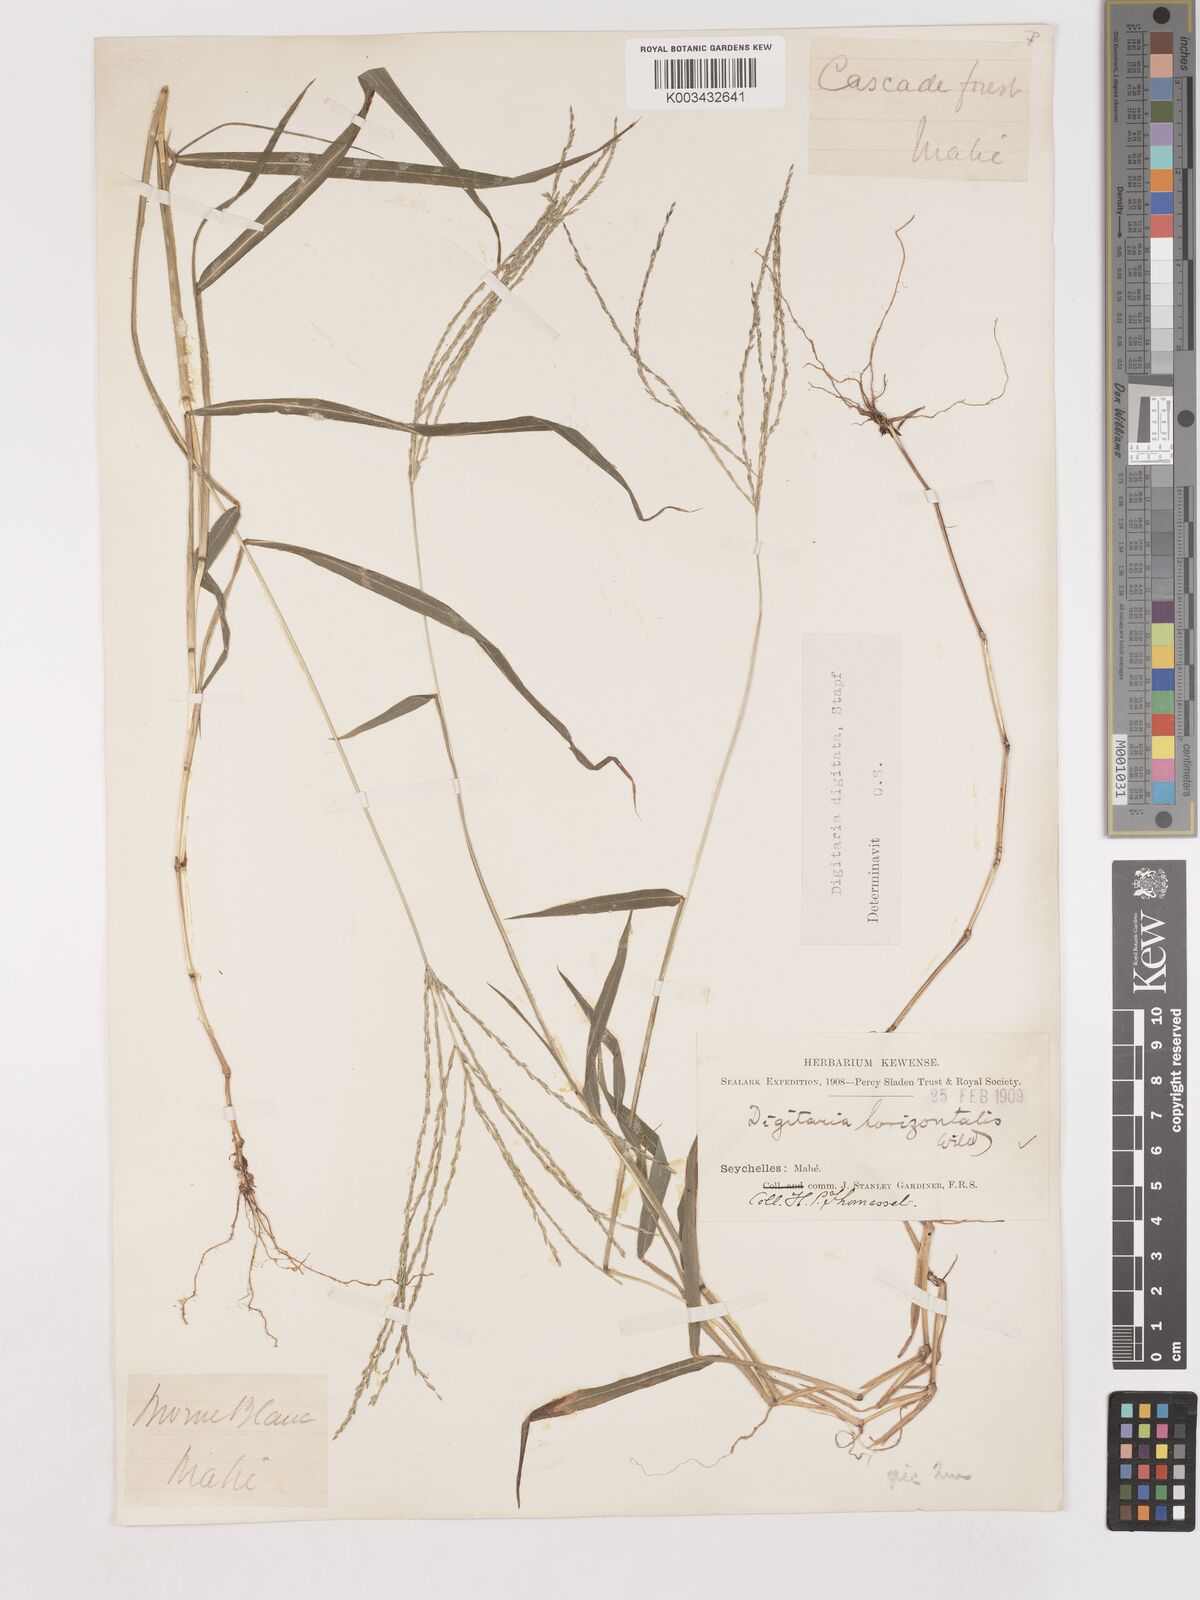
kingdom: Plantae
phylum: Tracheophyta
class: Liliopsida
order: Poales
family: Poaceae
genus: Digitaria
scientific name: Digitaria horizontalis
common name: Jamaican crabgrass
